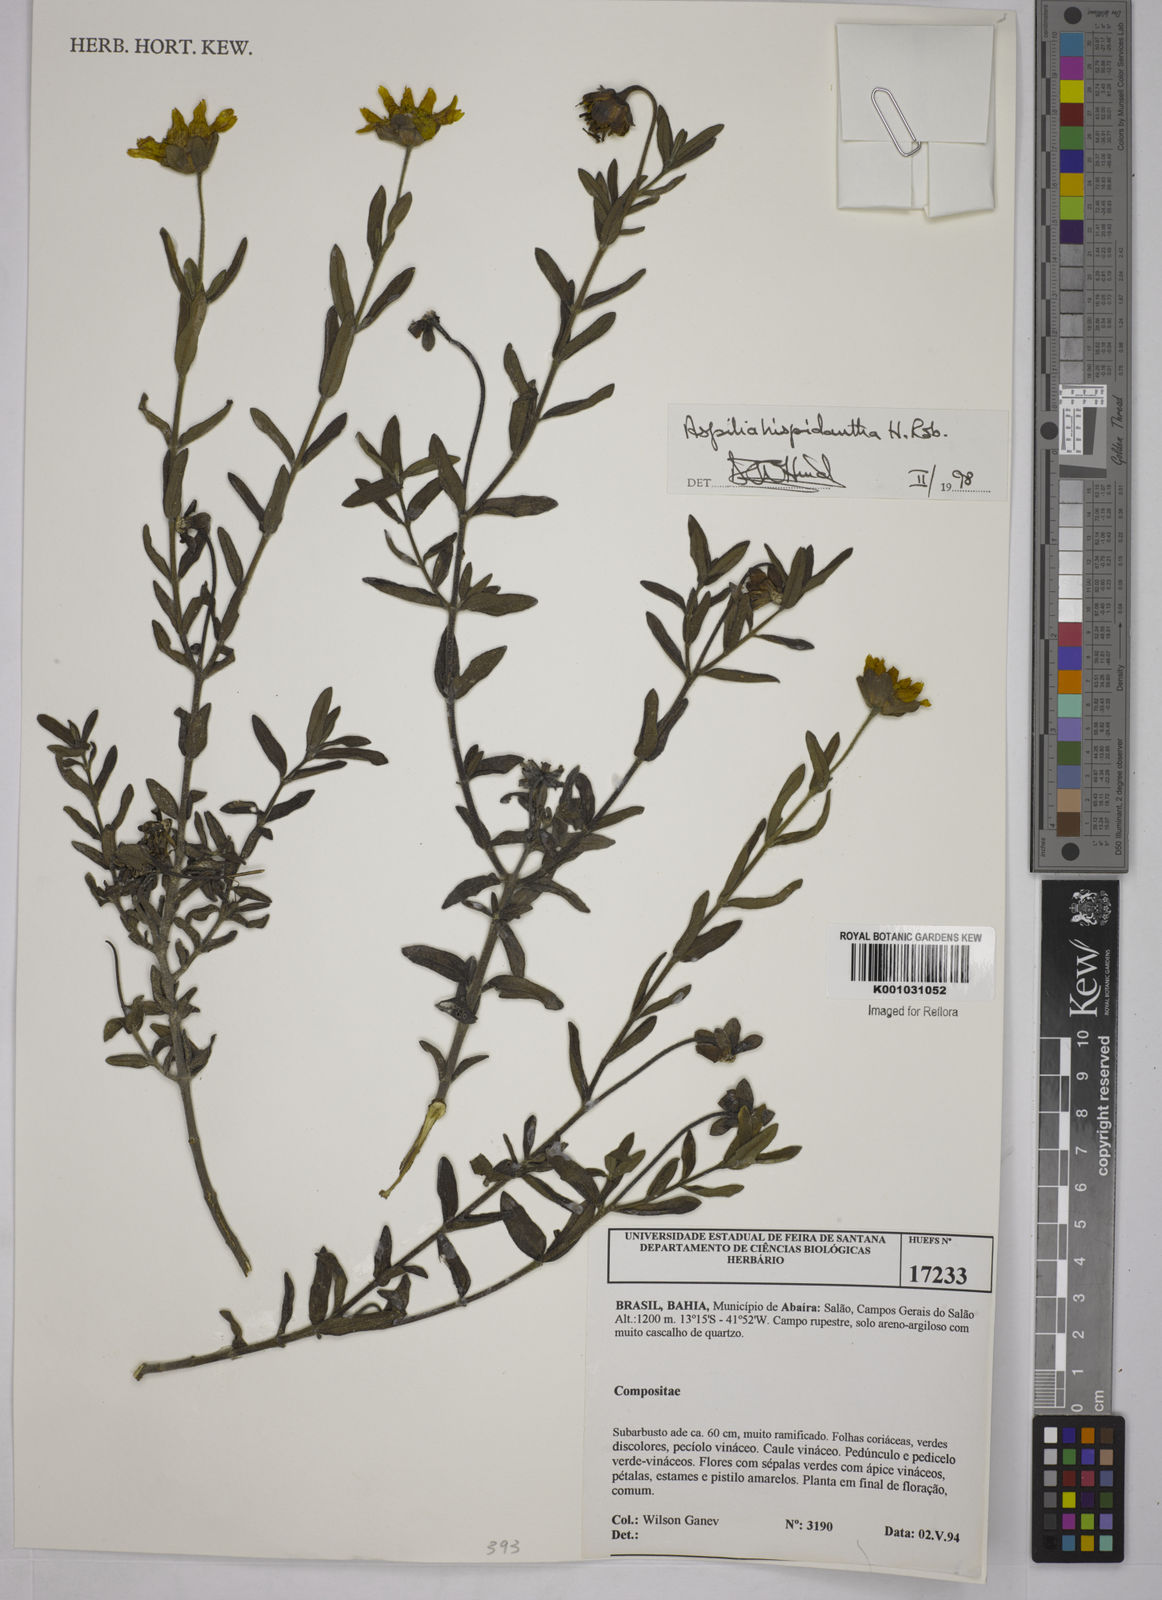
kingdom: Plantae
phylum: Tracheophyta
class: Magnoliopsida
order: Asterales
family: Asteraceae
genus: Wedelia
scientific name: Wedelia subalpestris
